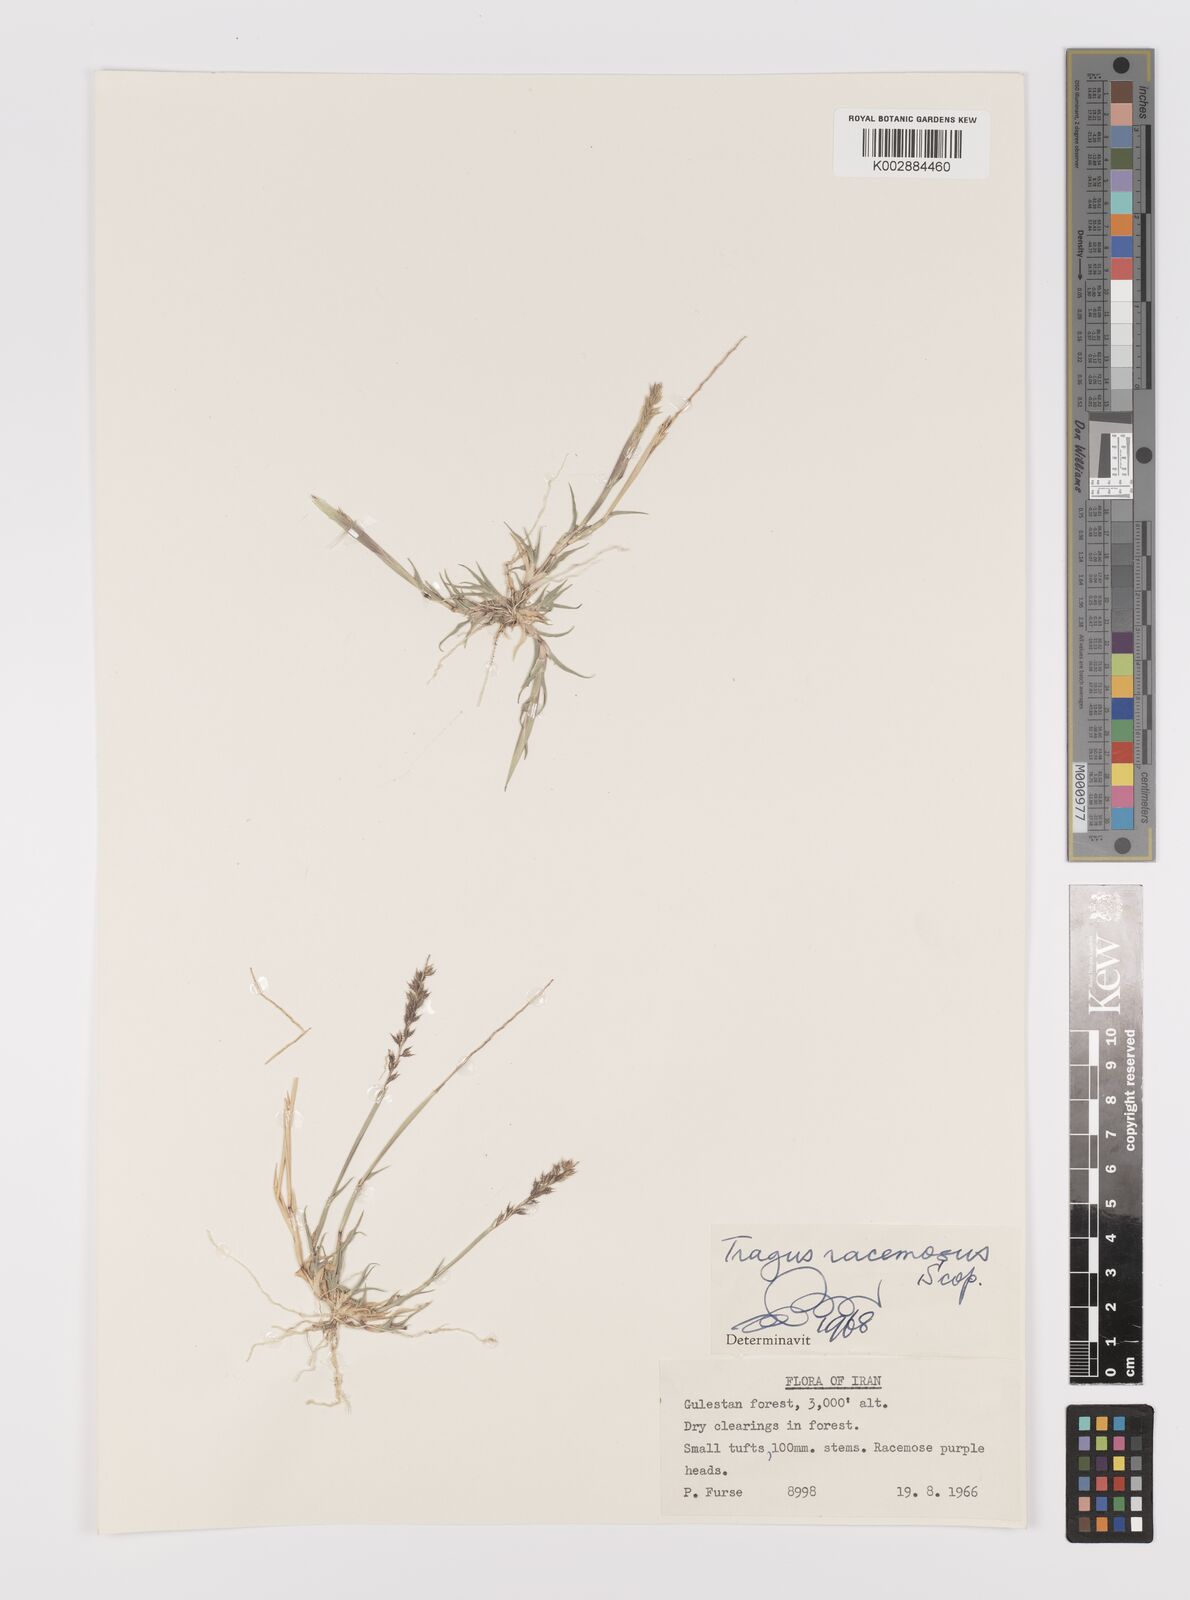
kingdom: Plantae
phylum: Tracheophyta
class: Liliopsida
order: Poales
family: Poaceae
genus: Tragus
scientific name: Tragus racemosus
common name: European bur-grass
